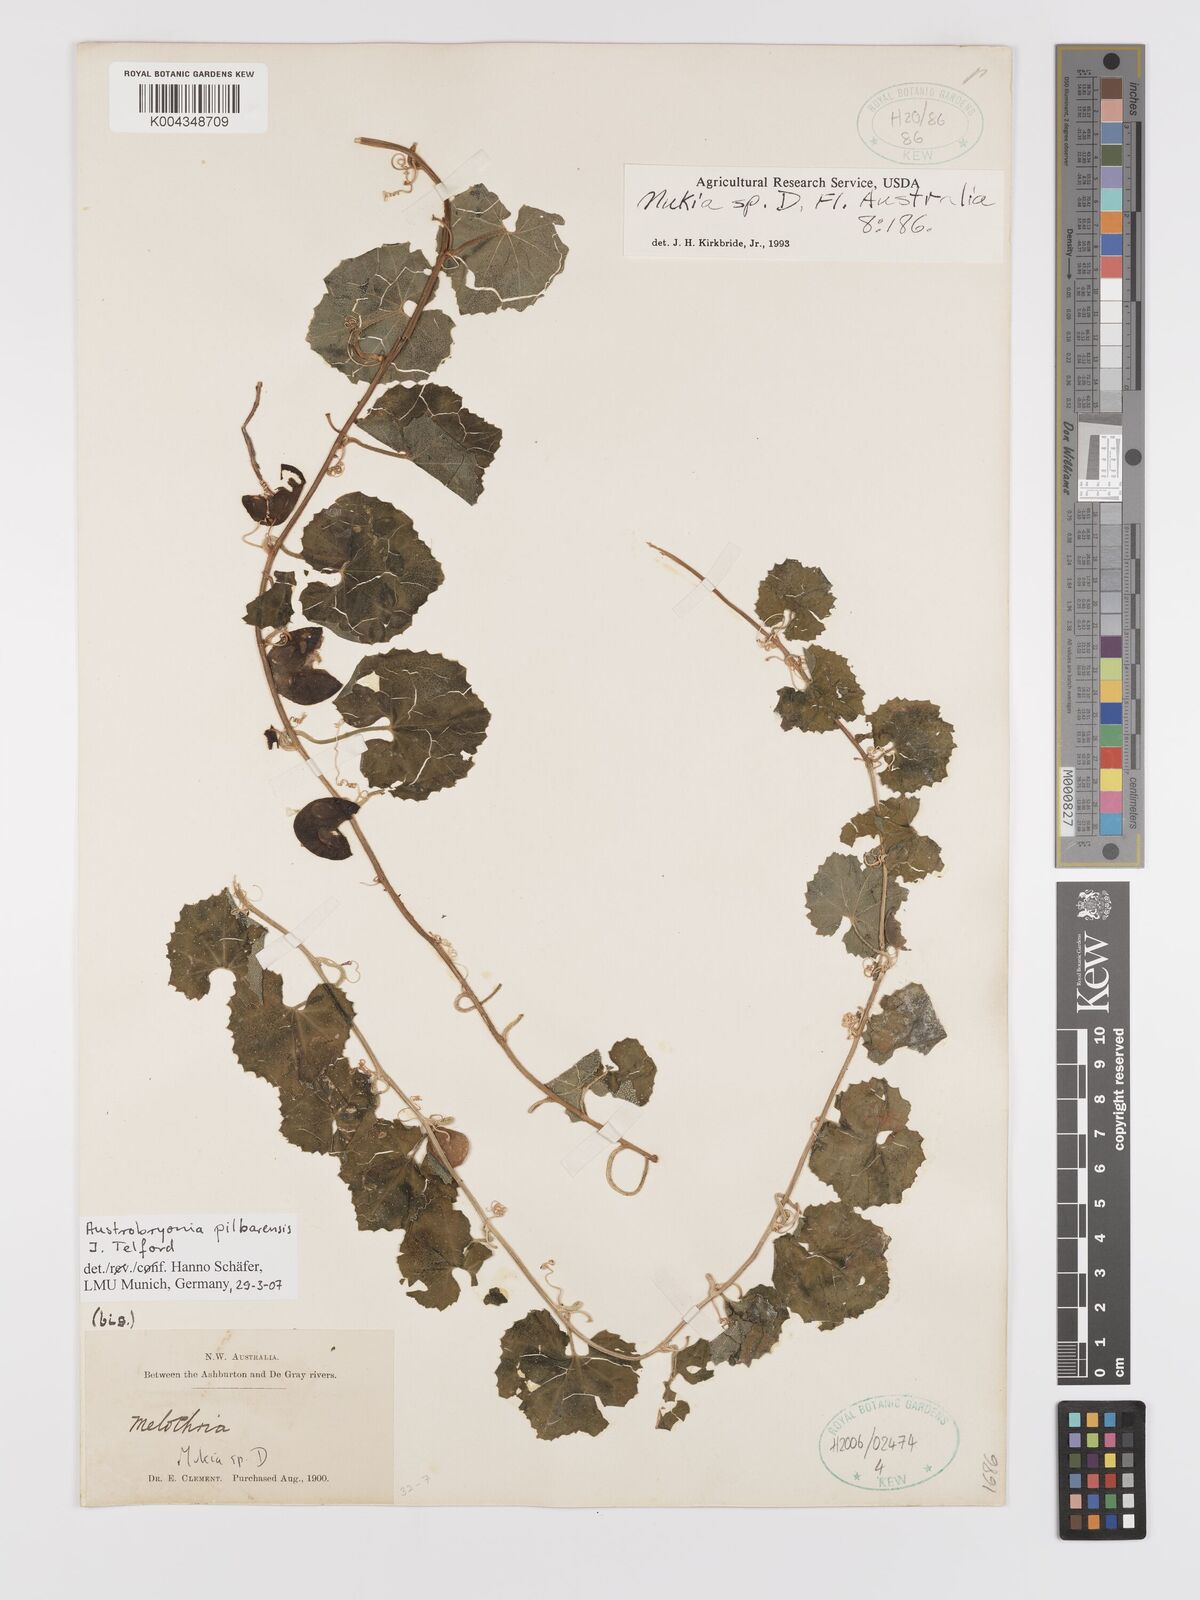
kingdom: Plantae
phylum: Tracheophyta
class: Magnoliopsida
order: Cucurbitales
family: Cucurbitaceae
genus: Austrobryonia
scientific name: Austrobryonia pilbarensis
